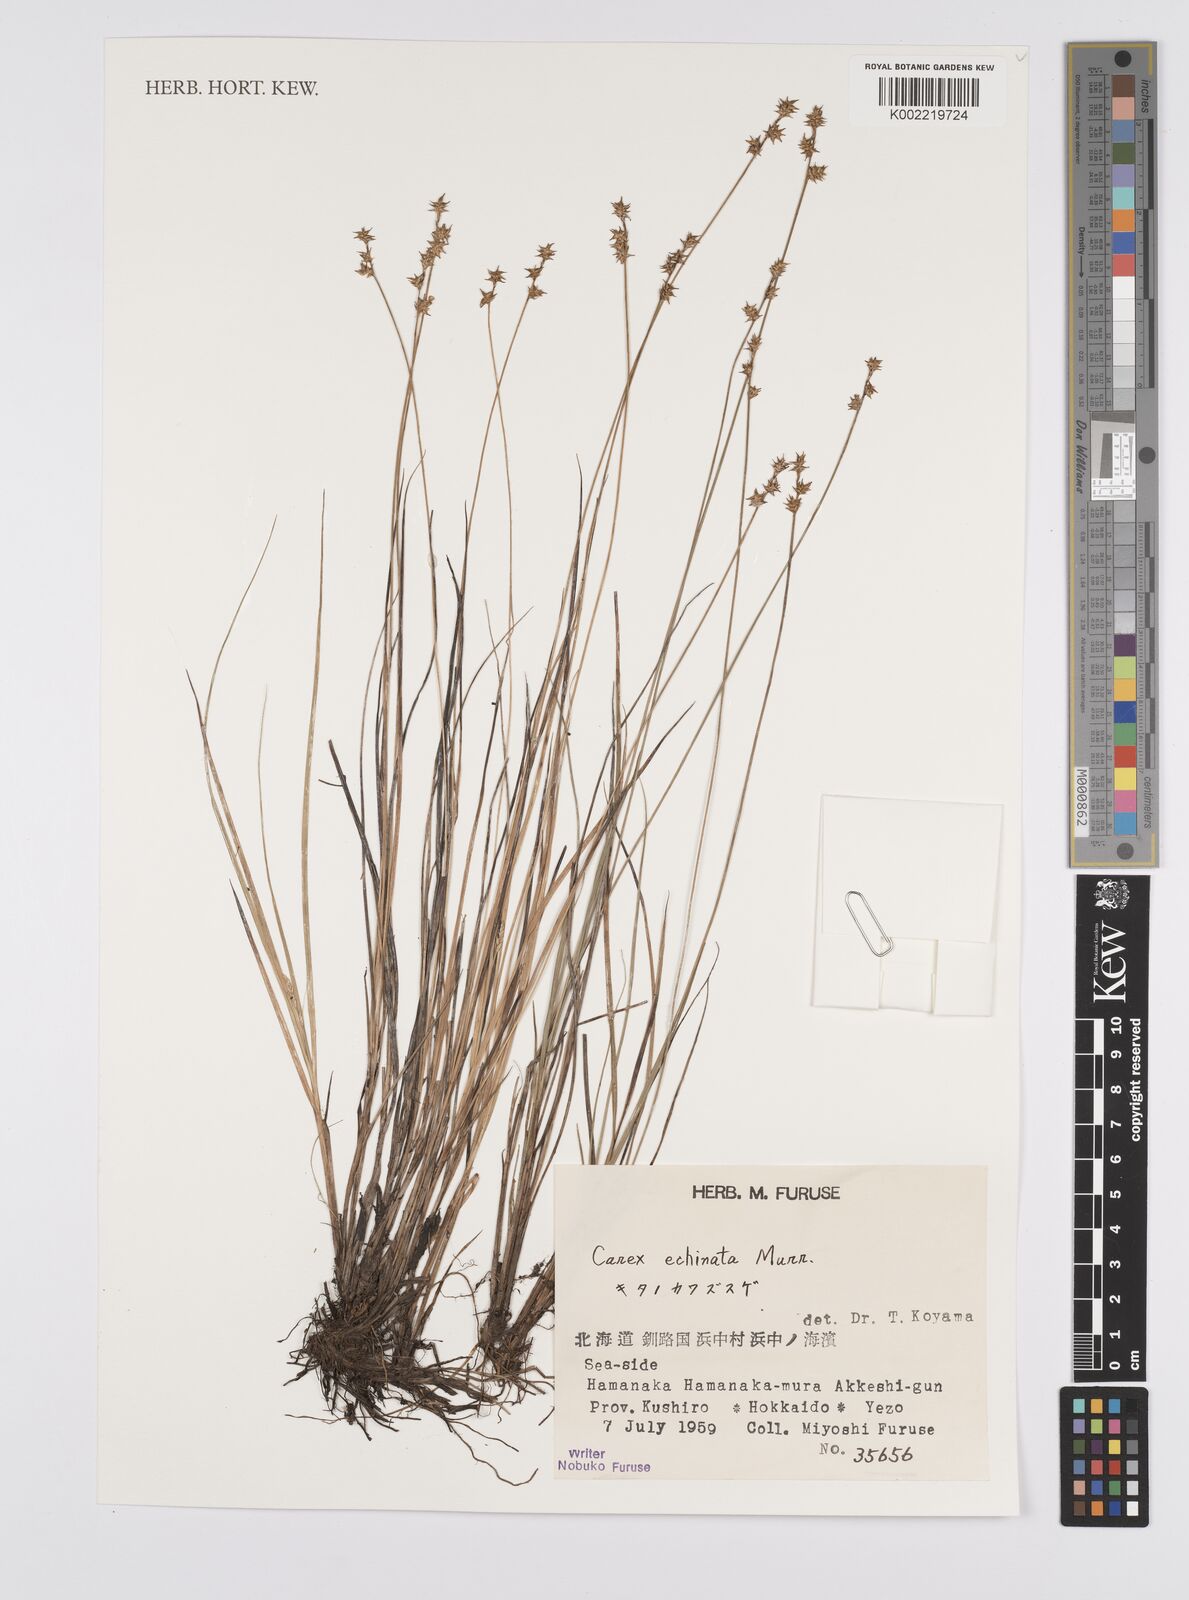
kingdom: Plantae
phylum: Tracheophyta
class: Liliopsida
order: Poales
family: Cyperaceae
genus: Carex
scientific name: Carex echinata
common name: Star sedge
